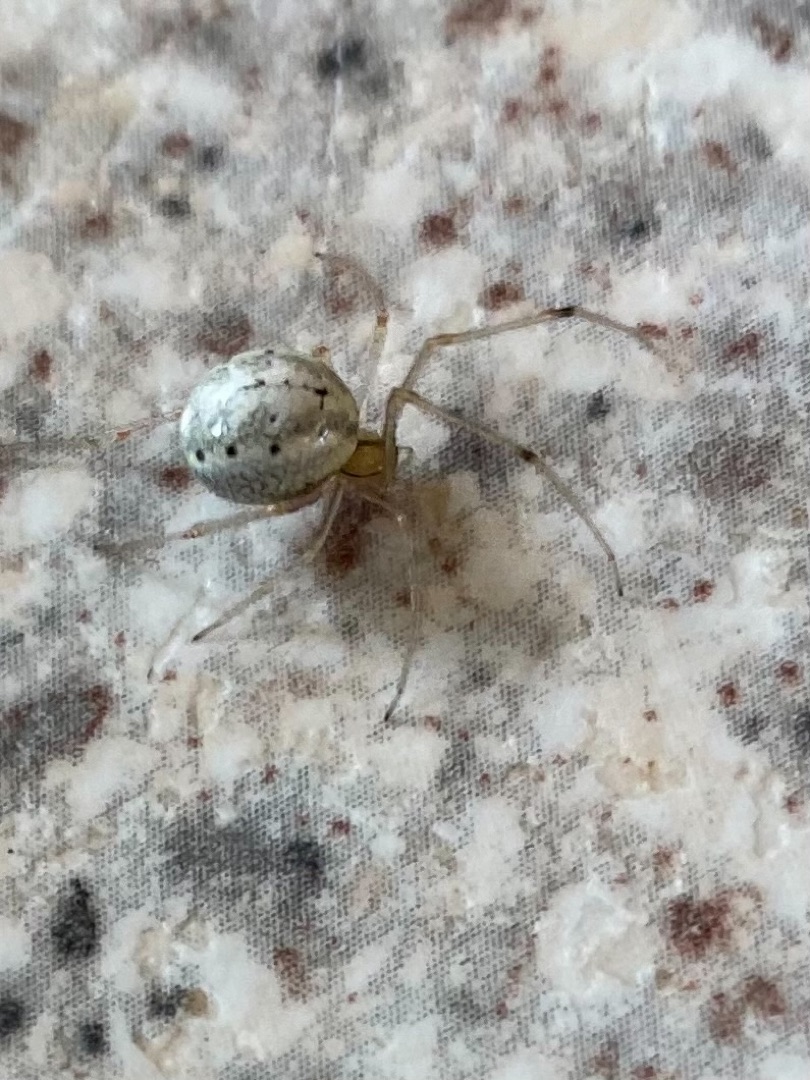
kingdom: Animalia
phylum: Arthropoda
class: Arachnida
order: Araneae
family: Theridiidae
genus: Enoplognatha
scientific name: Enoplognatha
